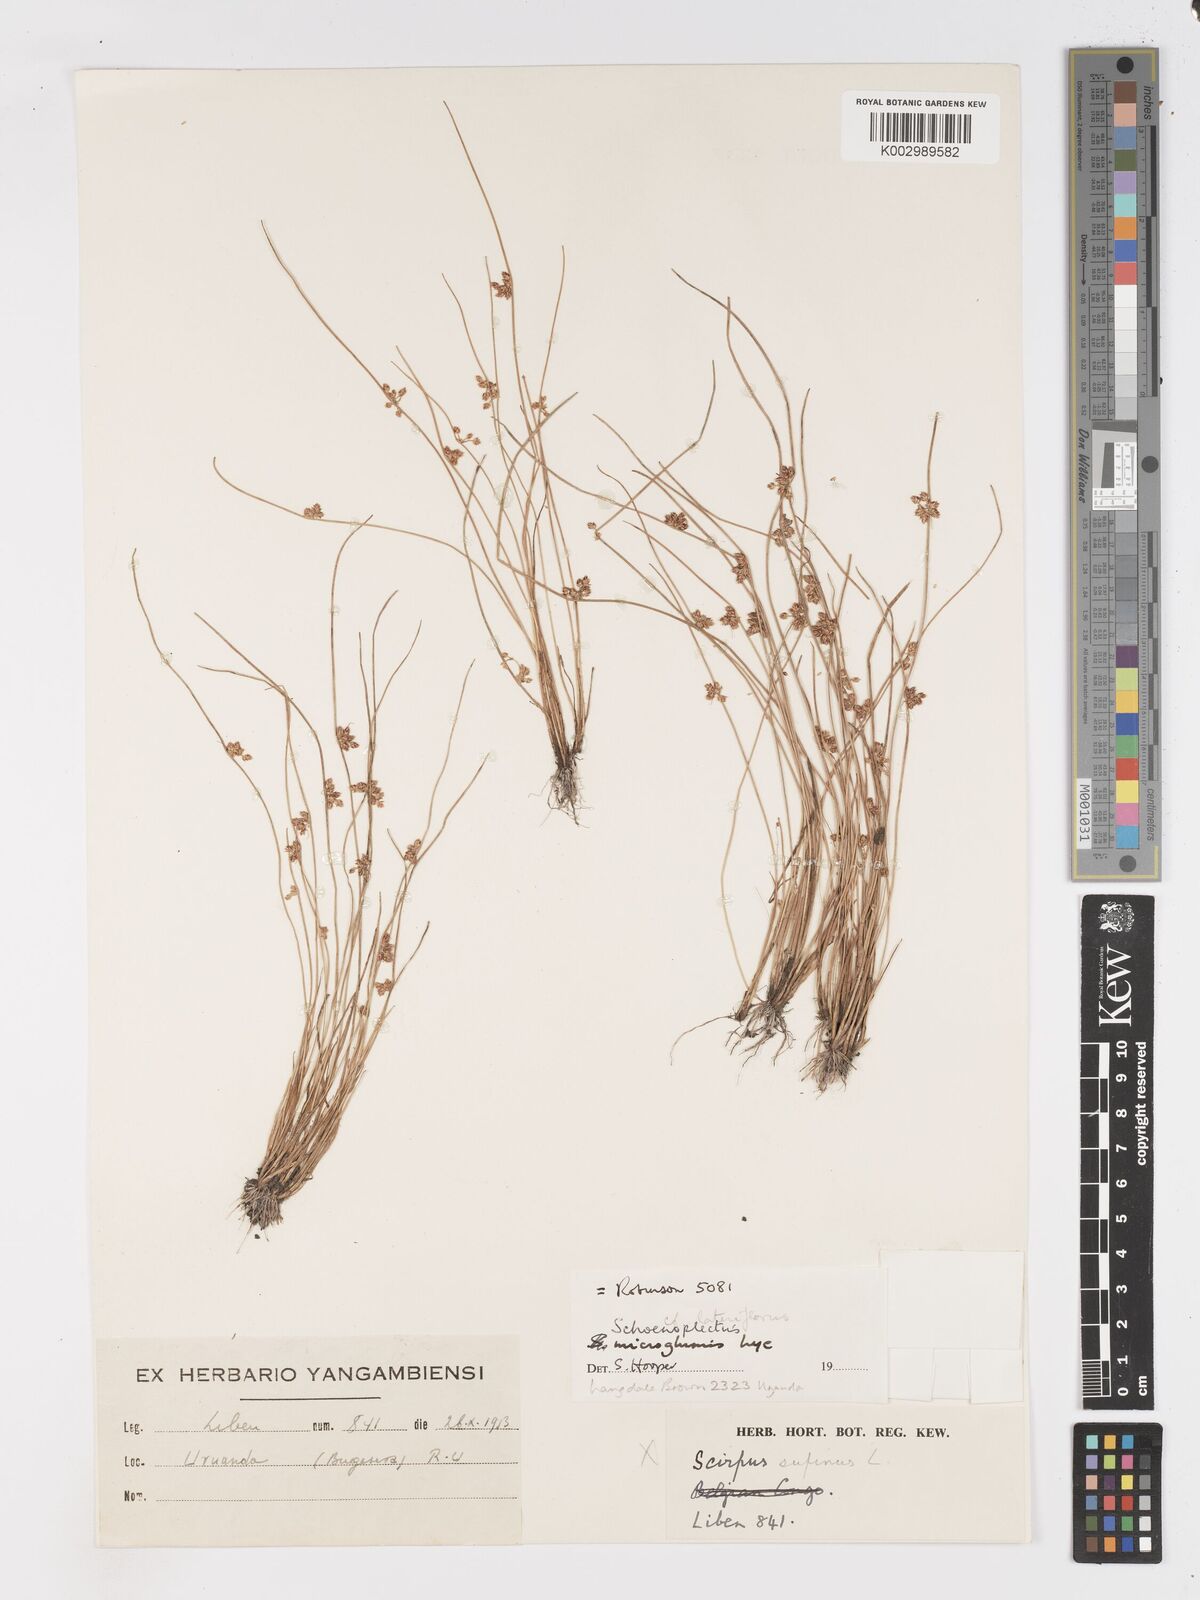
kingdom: Plantae
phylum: Tracheophyta
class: Liliopsida
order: Poales
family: Cyperaceae
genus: Schoenoplectiella
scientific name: Schoenoplectiella microglumis
